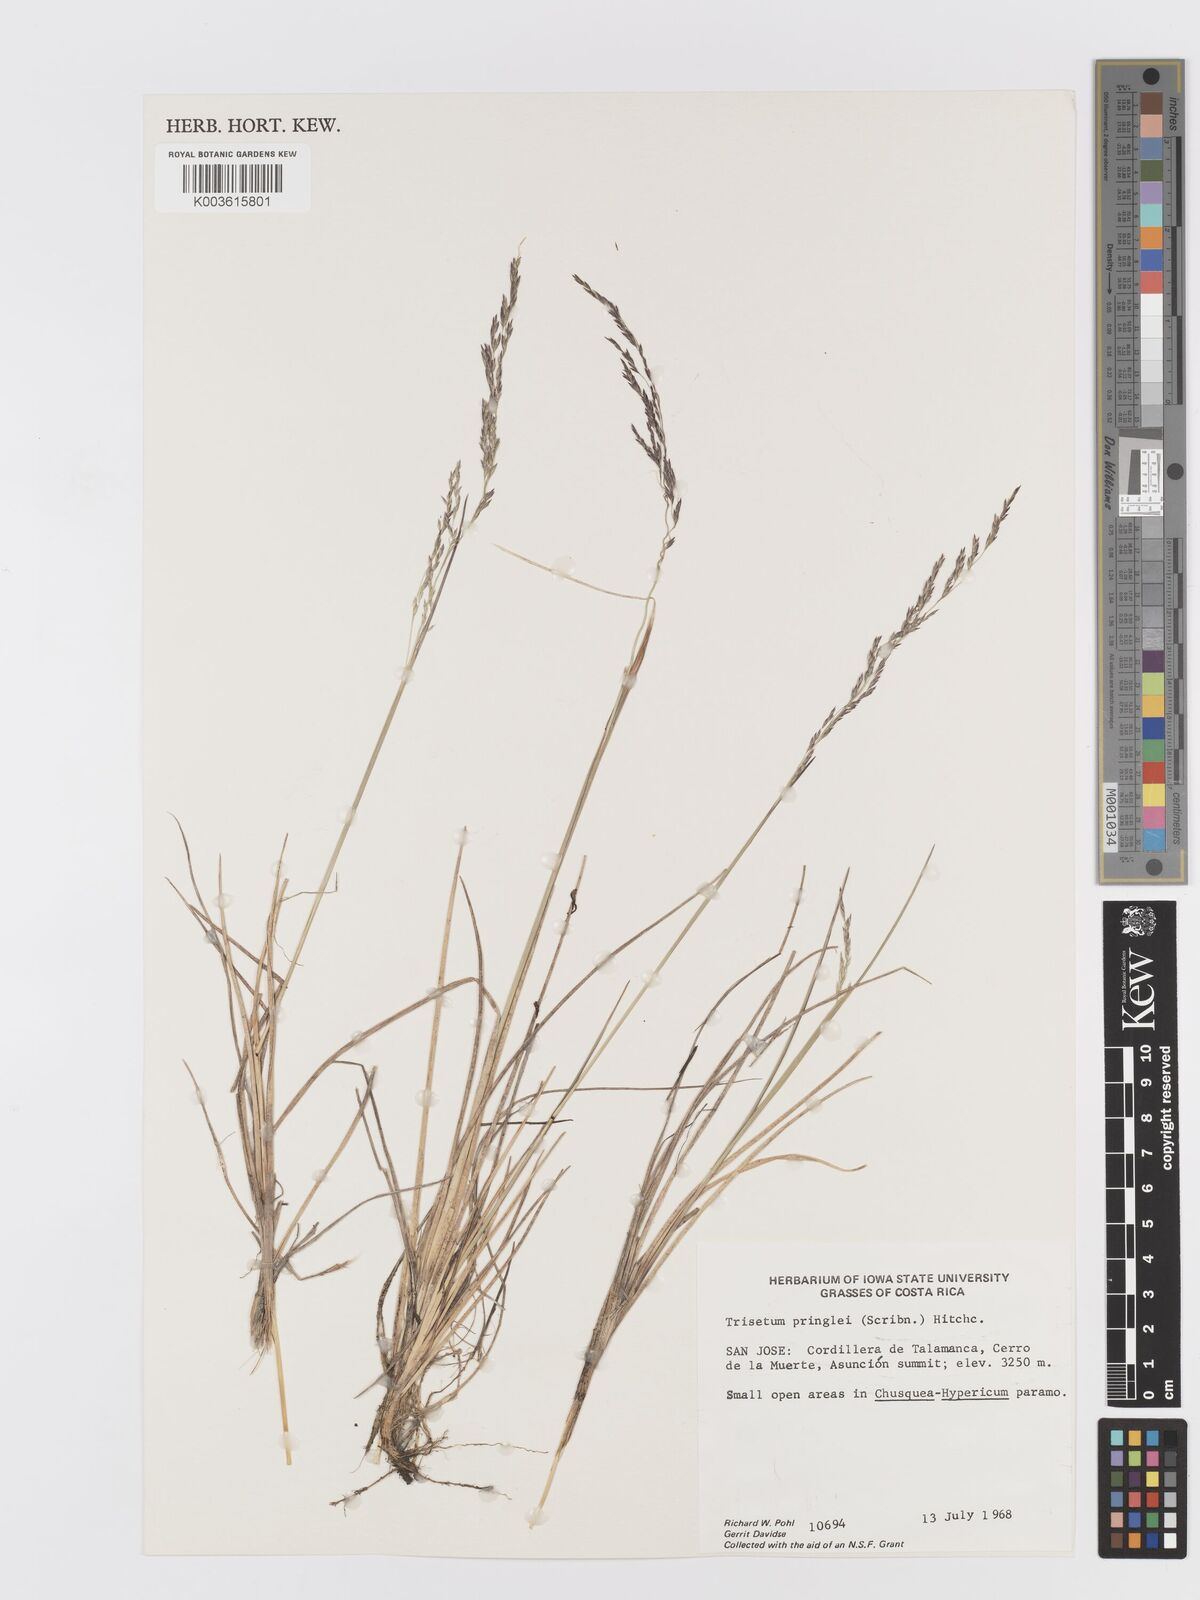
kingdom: Plantae
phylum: Tracheophyta
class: Liliopsida
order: Poales
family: Poaceae
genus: Peyritschia
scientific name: Peyritschia graphephoroides
